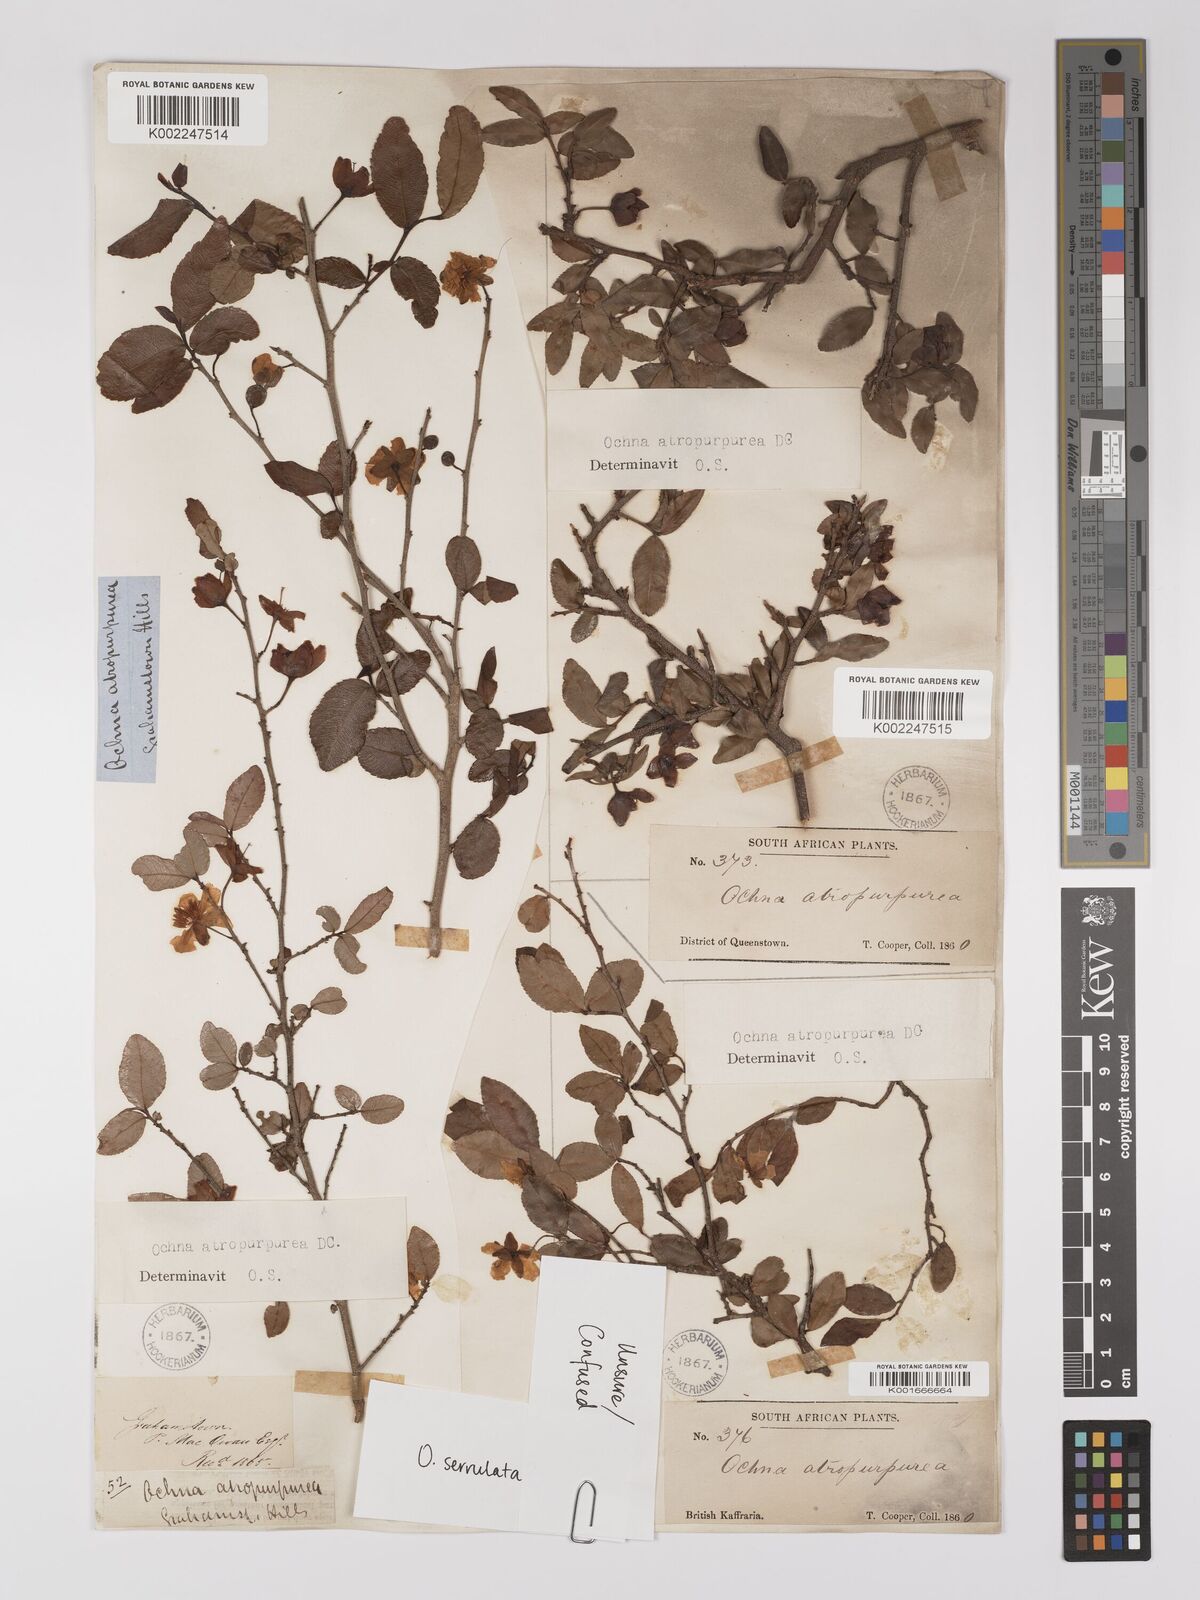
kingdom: Plantae
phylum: Tracheophyta
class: Magnoliopsida
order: Malpighiales
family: Ochnaceae
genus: Ochna
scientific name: Ochna serrulata
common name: Mickey mouse plant
